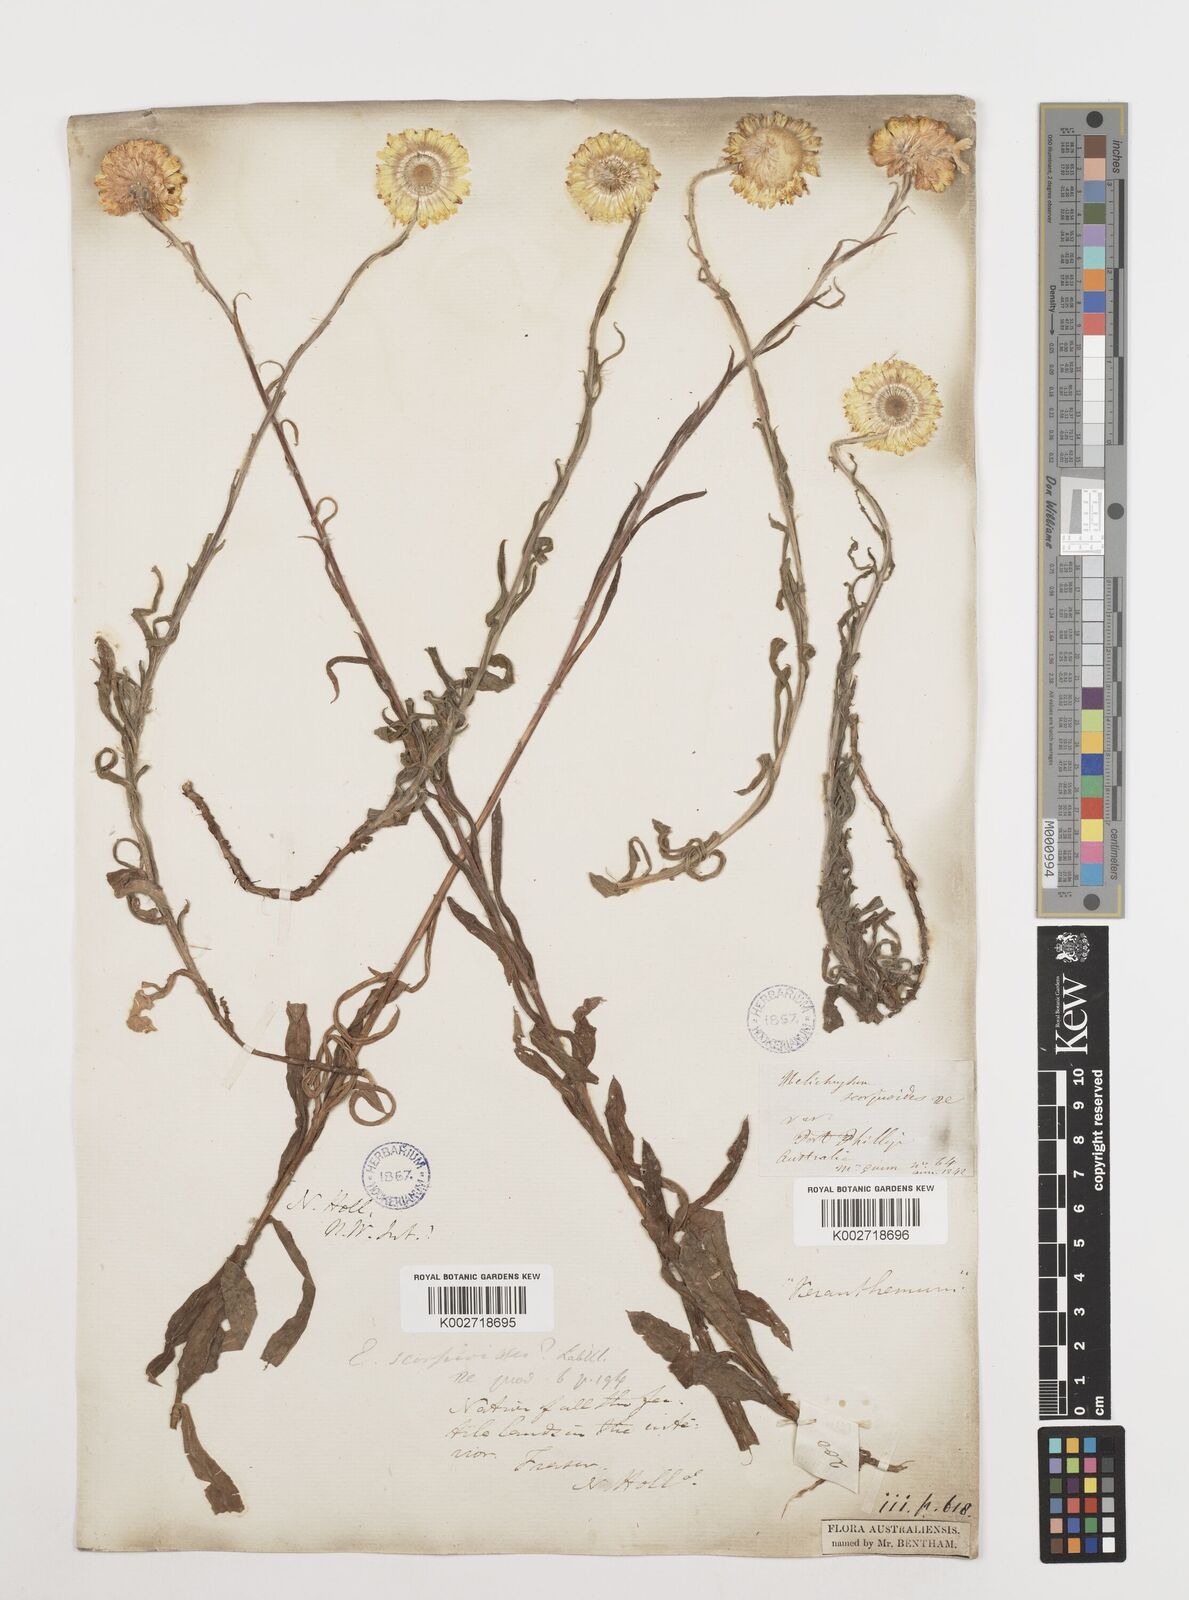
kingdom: Plantae
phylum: Tracheophyta
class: Magnoliopsida
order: Asterales
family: Asteraceae
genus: Coronidium
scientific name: Coronidium scorpioides
